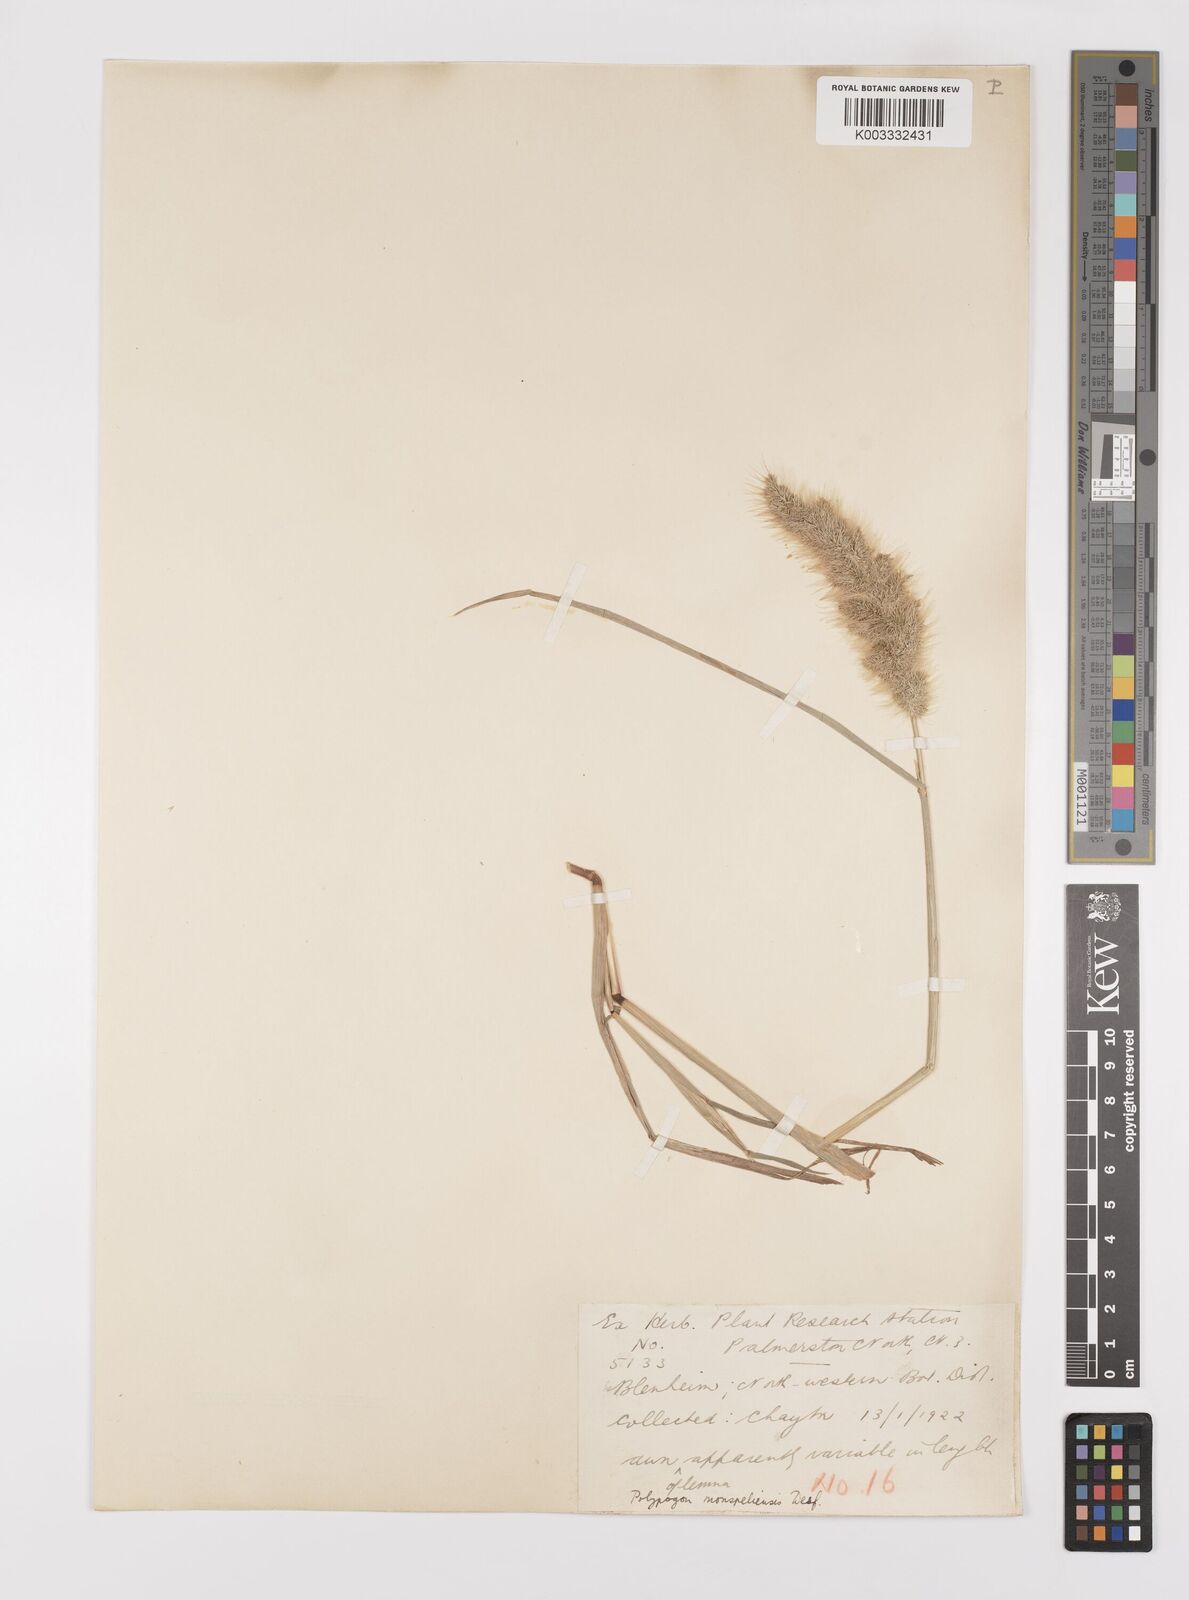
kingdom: Plantae
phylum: Tracheophyta
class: Liliopsida
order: Poales
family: Poaceae
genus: Polypogon
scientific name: Polypogon monspeliensis
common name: Annual rabbitsfoot grass
